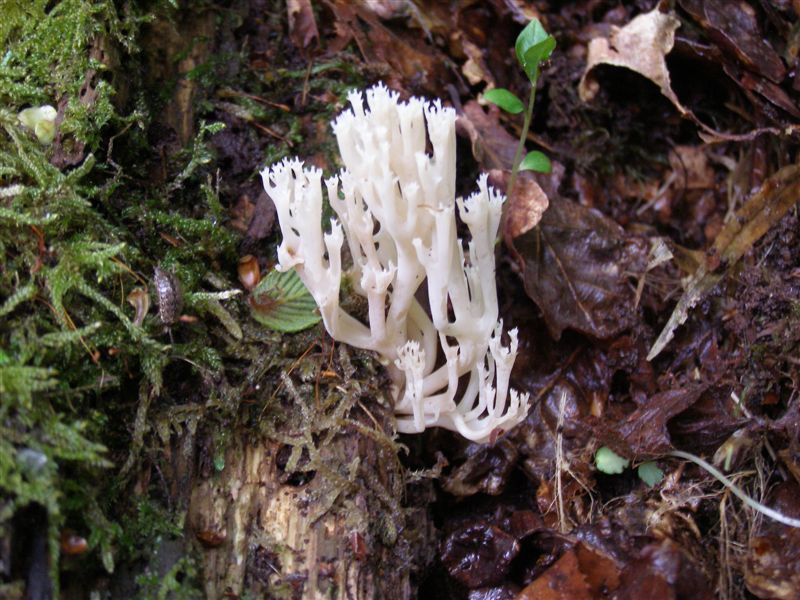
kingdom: Fungi
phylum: Basidiomycota
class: Agaricomycetes
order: Russulales
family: Auriscalpiaceae
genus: Artomyces
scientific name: Artomyces pyxidatus
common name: kandelabersvamp
